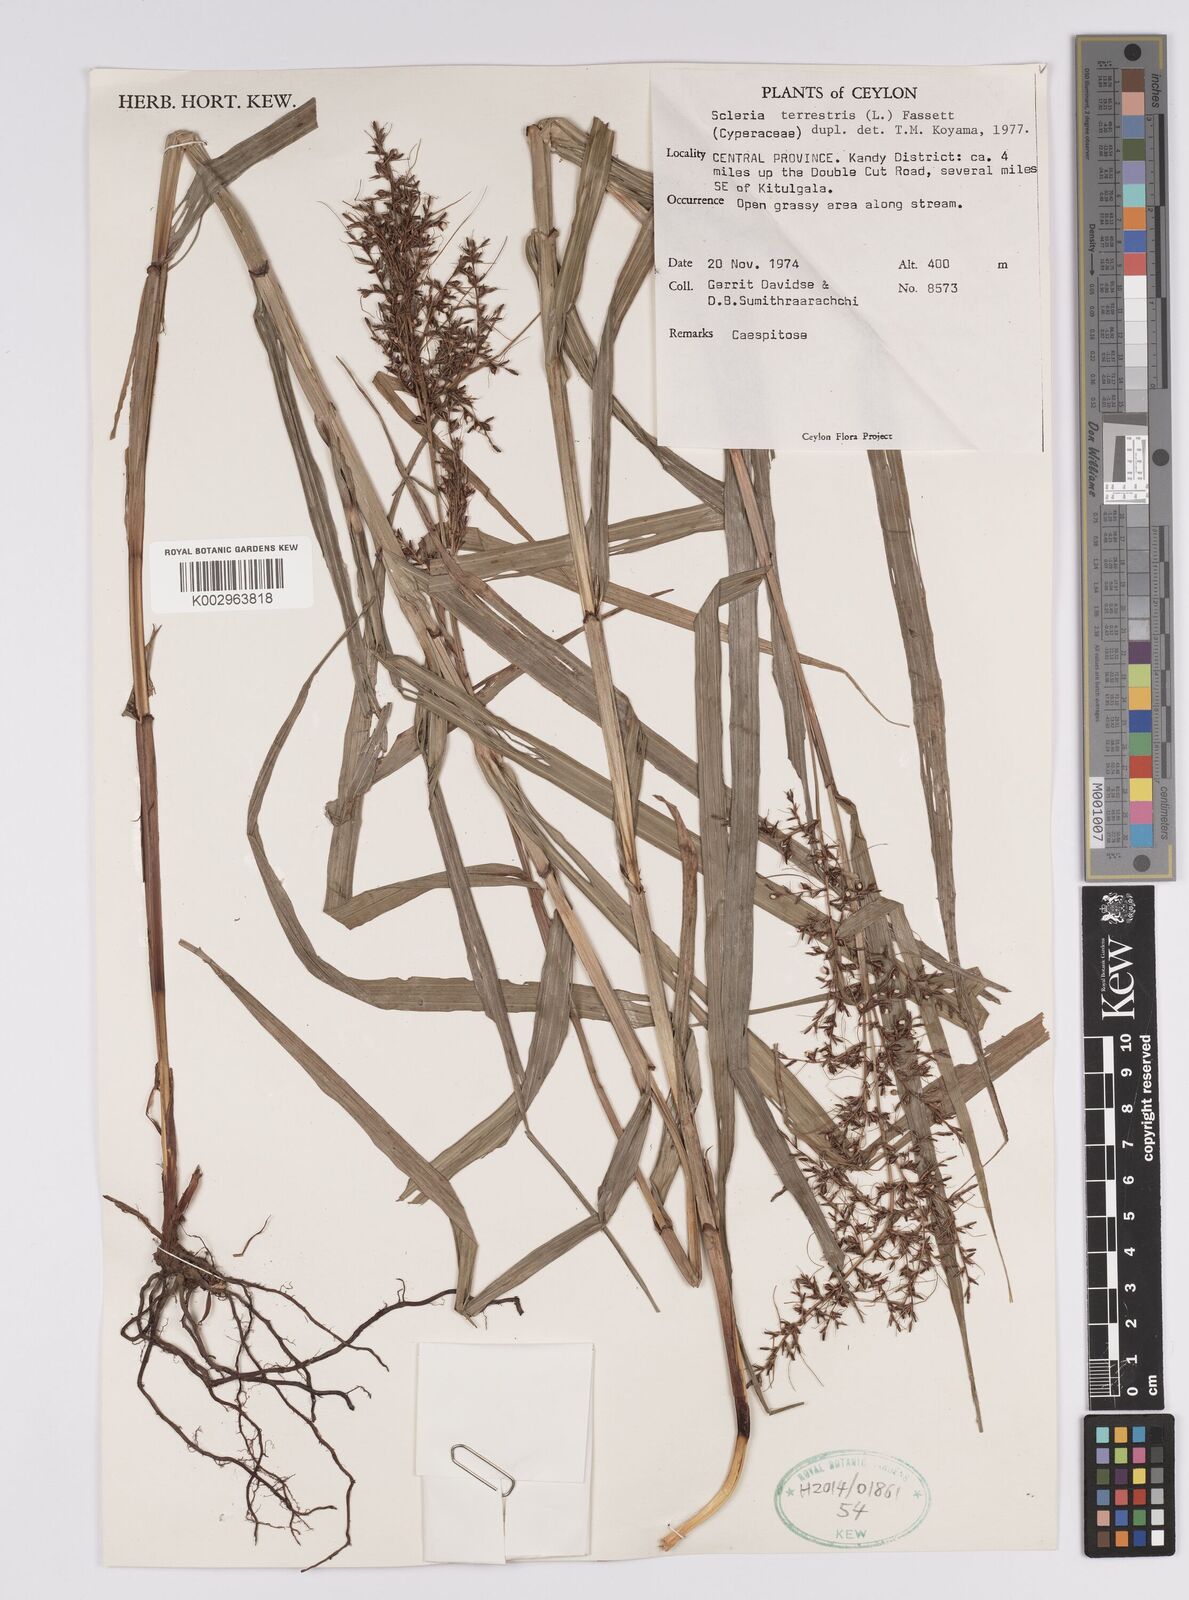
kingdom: Plantae
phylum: Tracheophyta
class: Liliopsida
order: Poales
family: Cyperaceae
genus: Scleria
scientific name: Scleria terrestris
